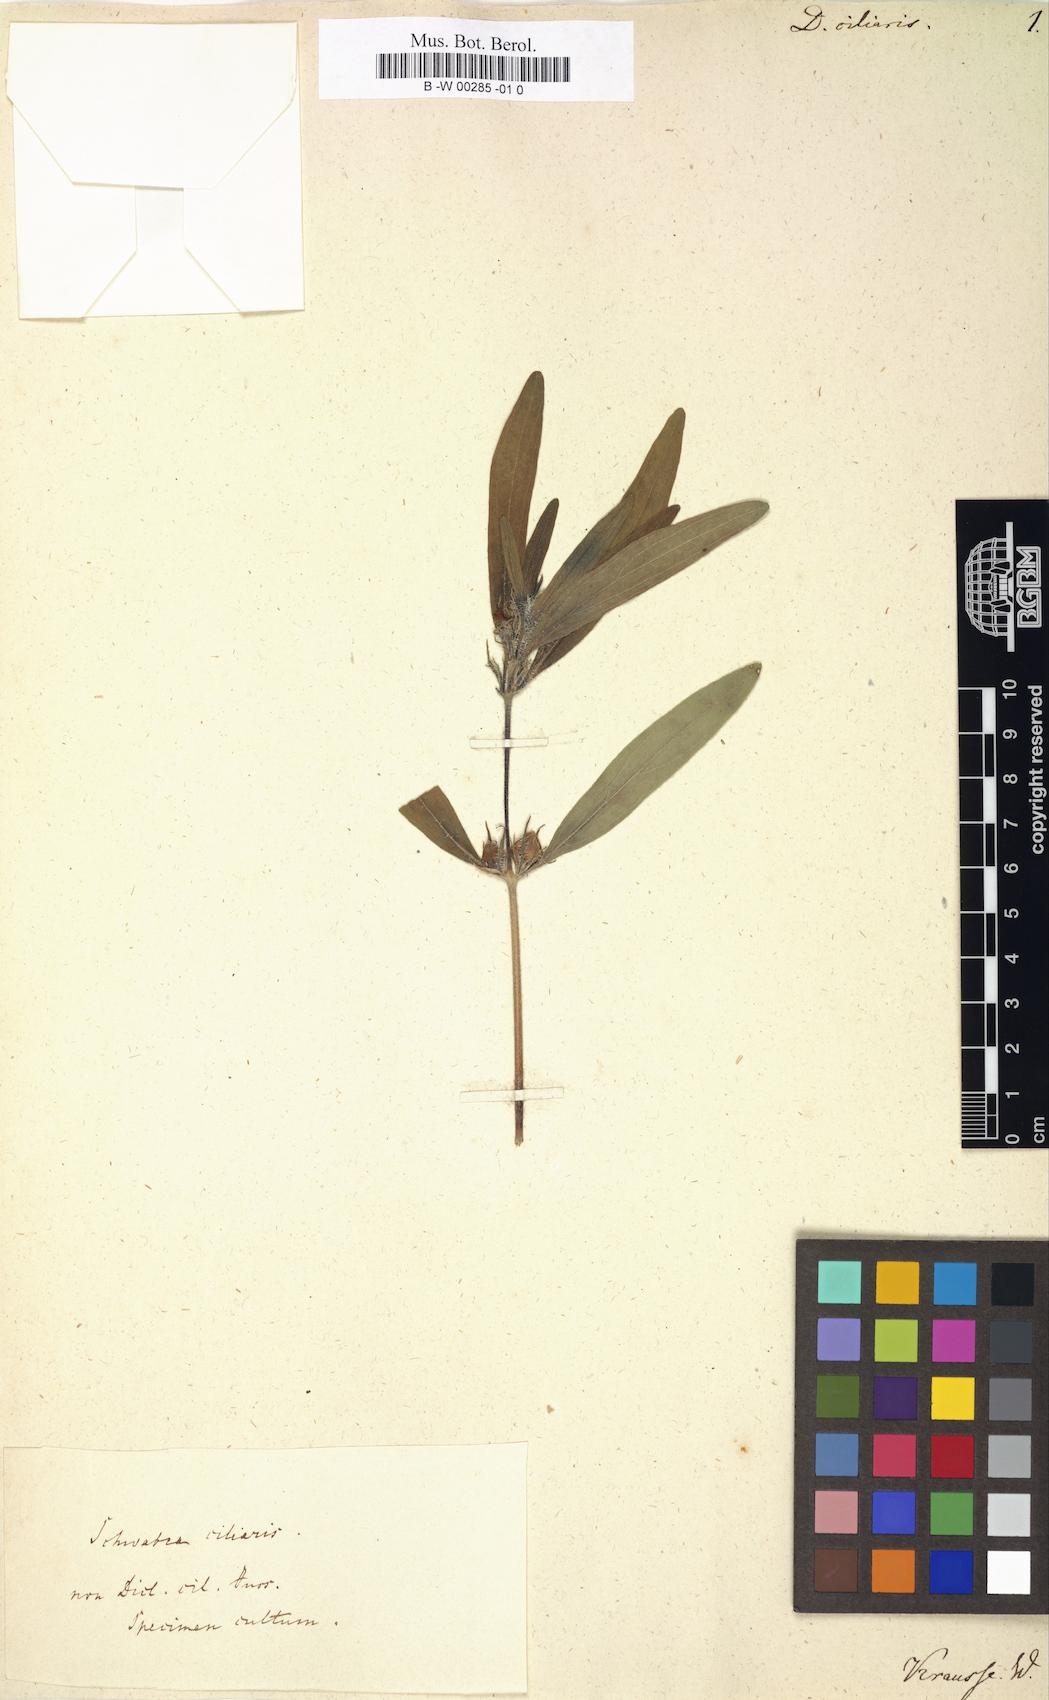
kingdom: Plantae
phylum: Tracheophyta
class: Magnoliopsida
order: Lamiales
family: Acanthaceae
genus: Pogonospermum
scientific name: Pogonospermum ciliare
